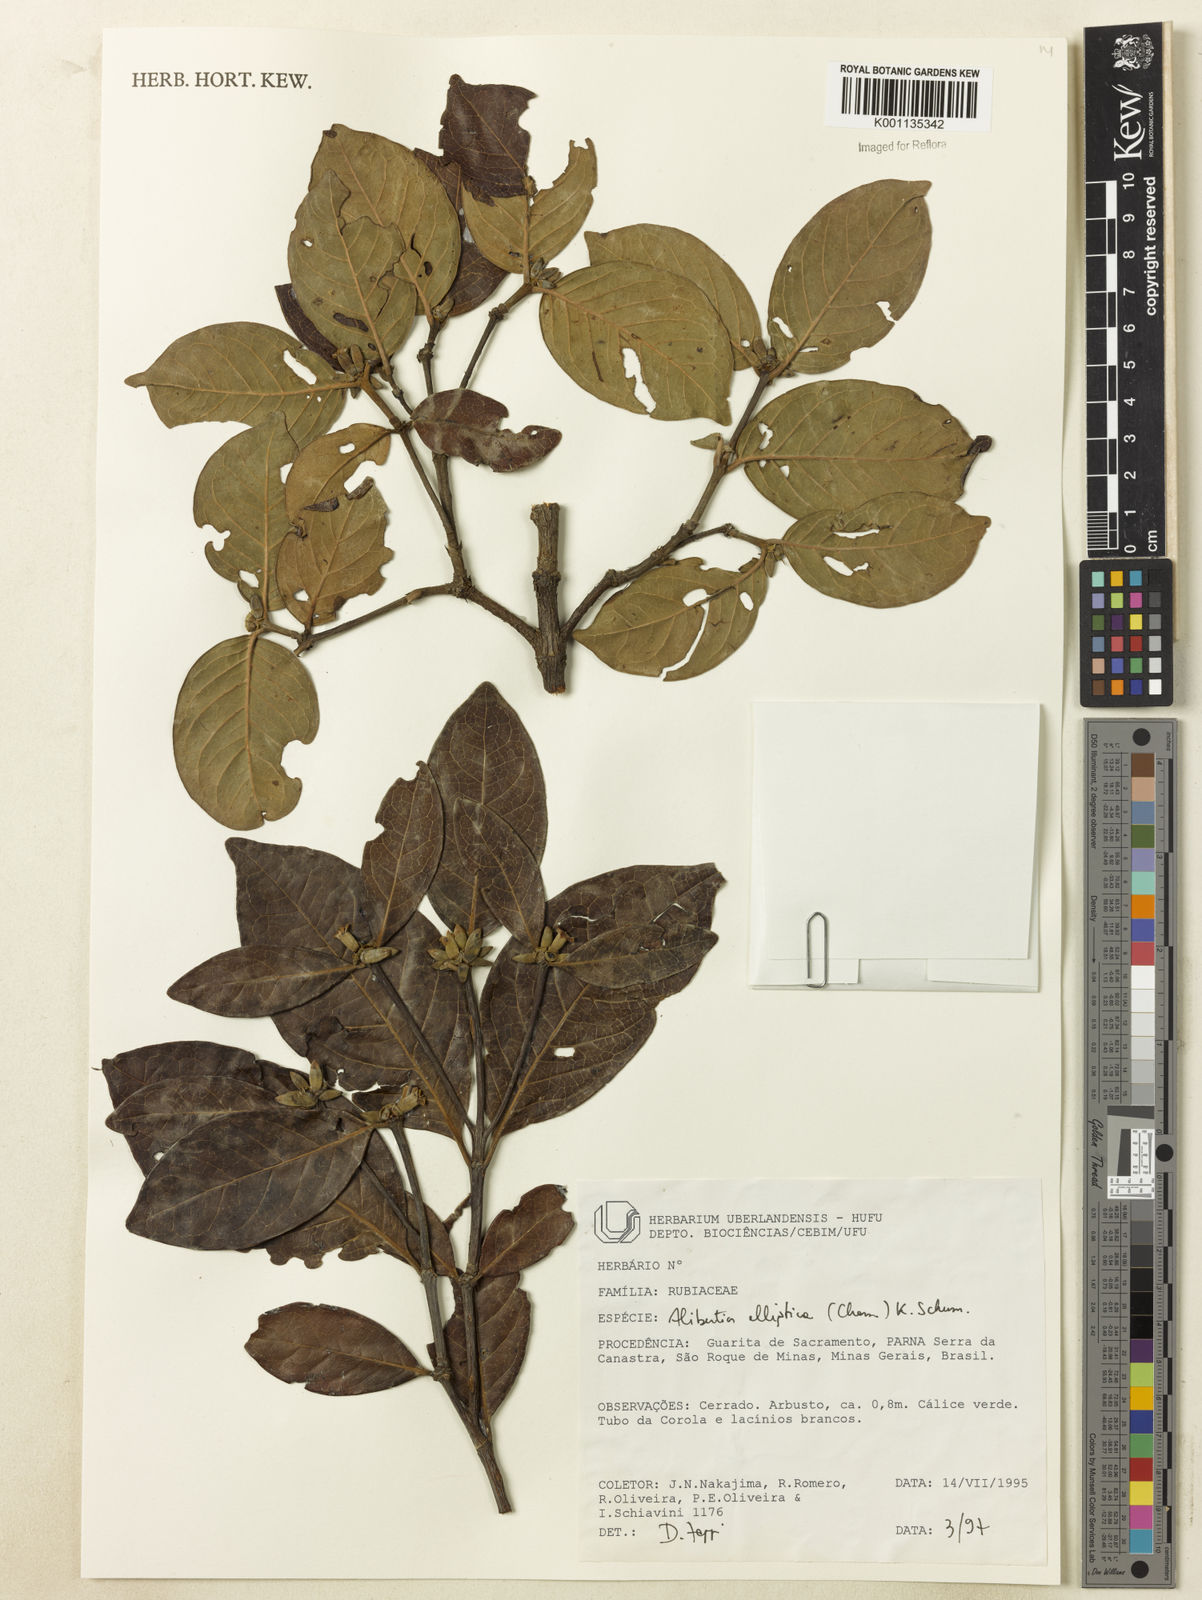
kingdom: Plantae
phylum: Tracheophyta
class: Magnoliopsida
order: Gentianales
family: Rubiaceae
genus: Cordiera
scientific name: Cordiera elliptica
